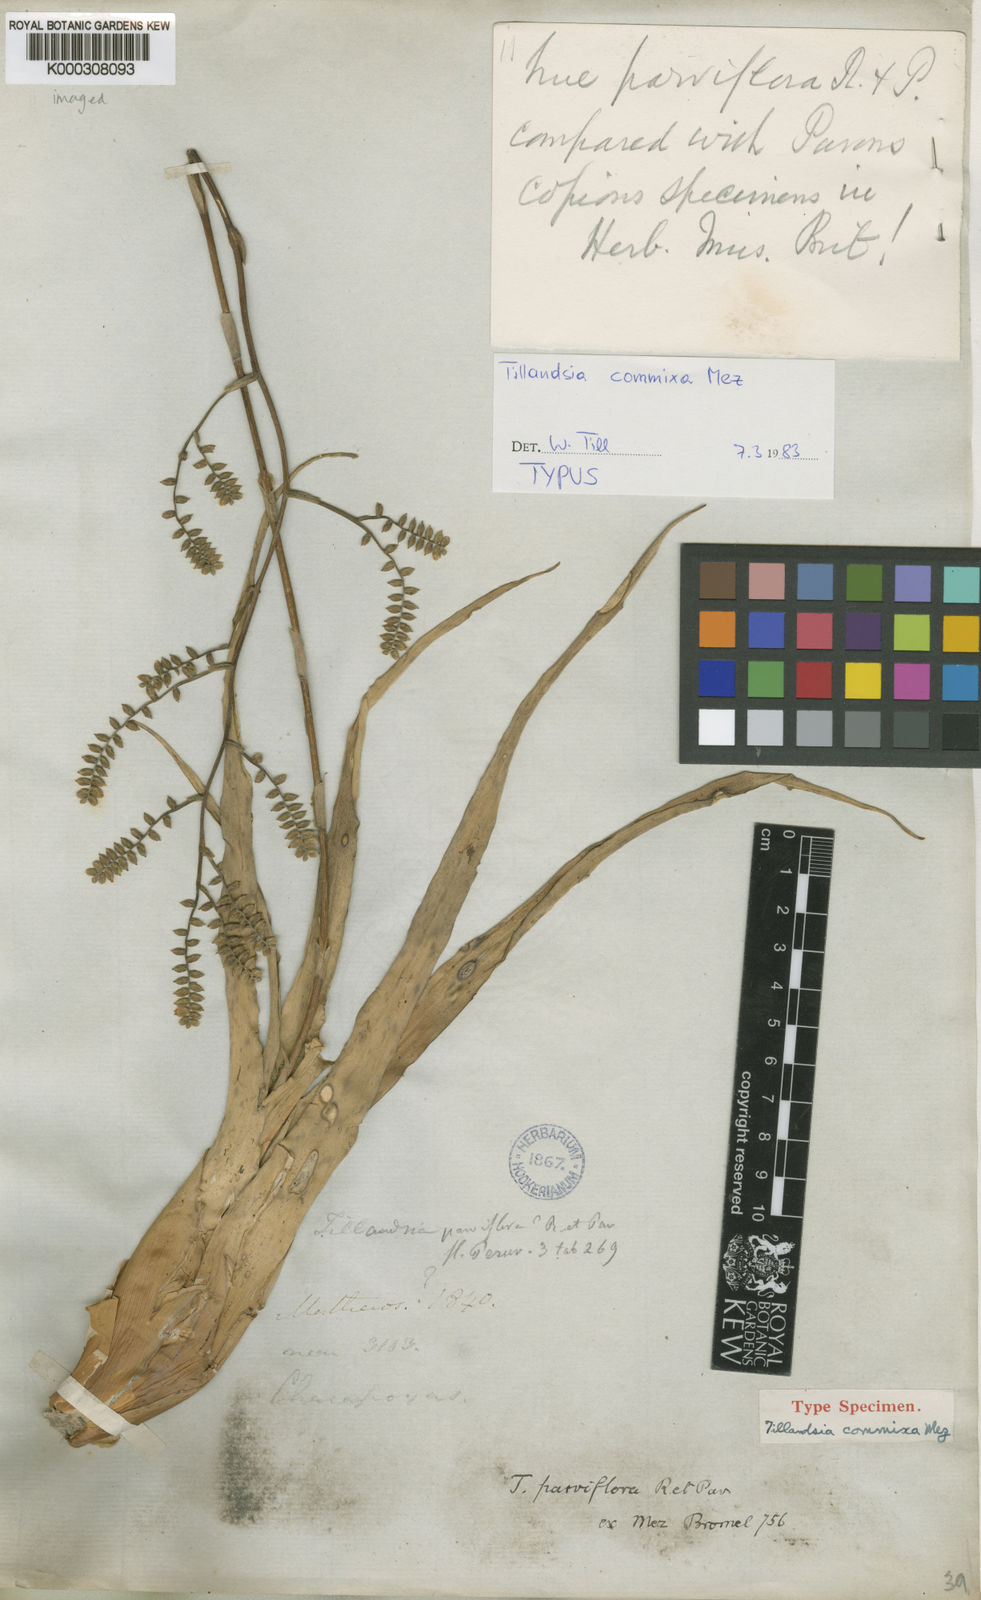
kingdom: Plantae
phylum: Tracheophyta
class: Liliopsida
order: Poales
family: Bromeliaceae
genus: Racinaea
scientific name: Racinaea commixa
